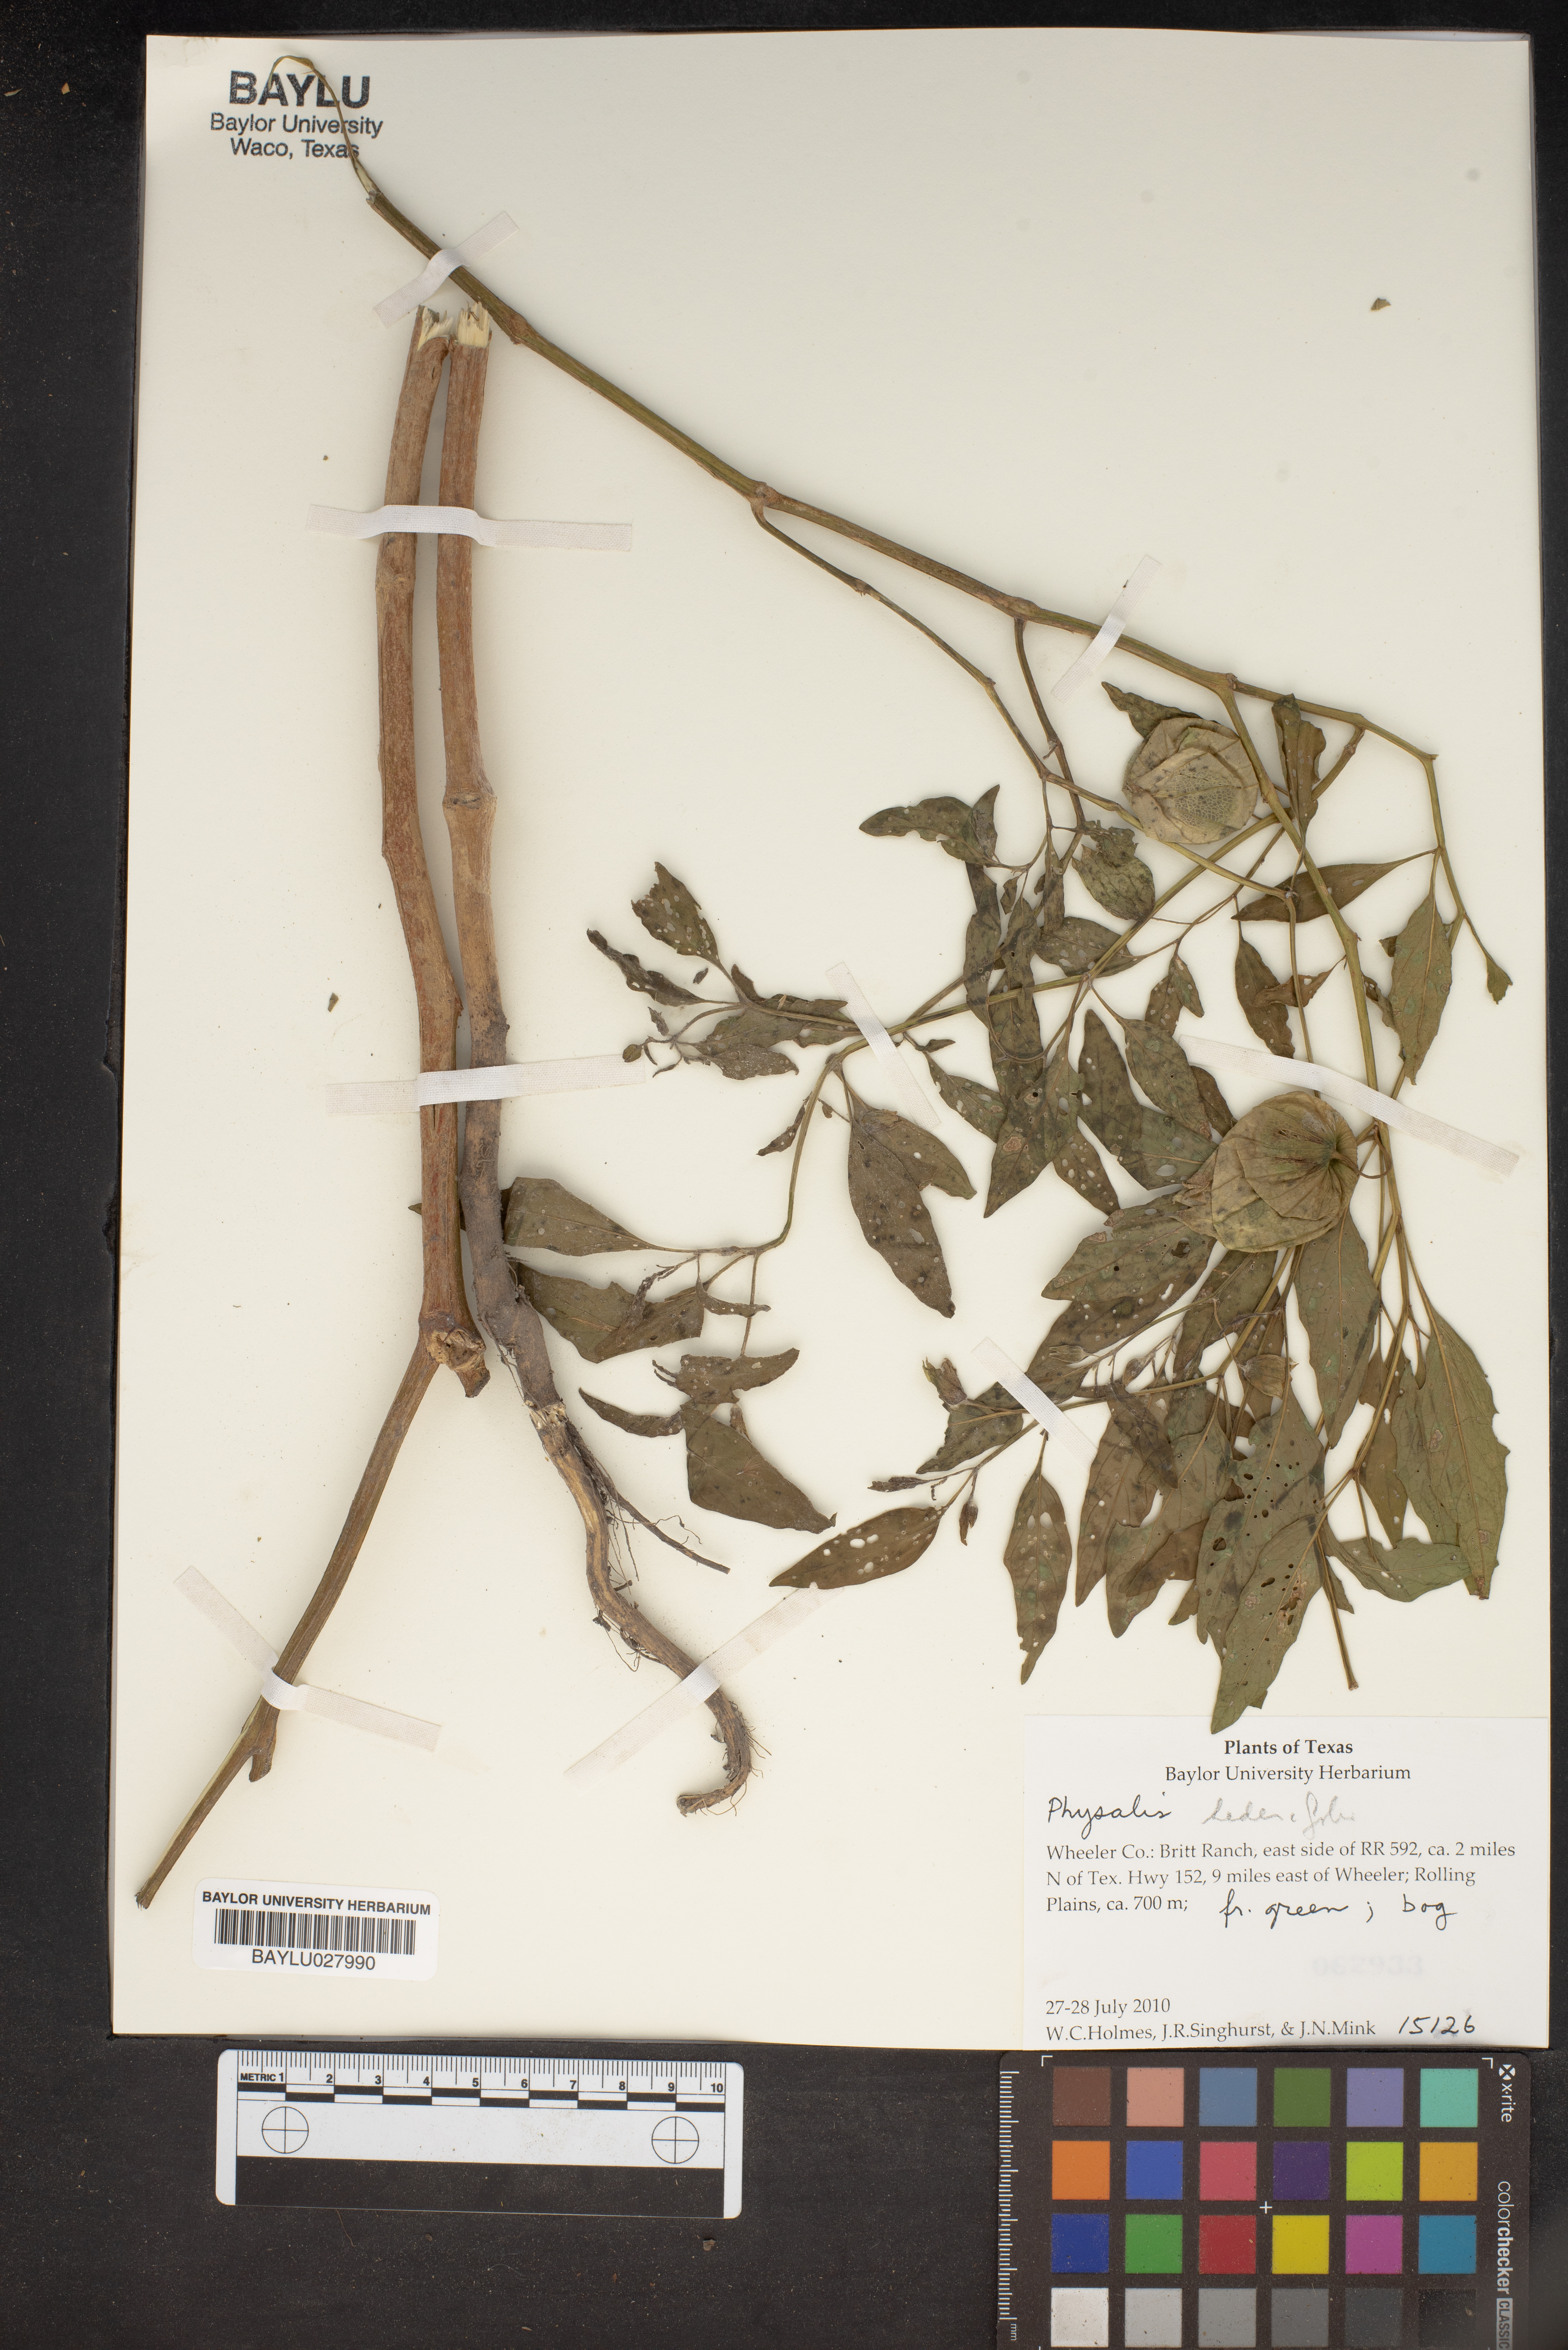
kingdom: Plantae
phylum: Tracheophyta
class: Magnoliopsida
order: Solanales
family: Solanaceae
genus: Physalis
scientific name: Physalis hederifolia
